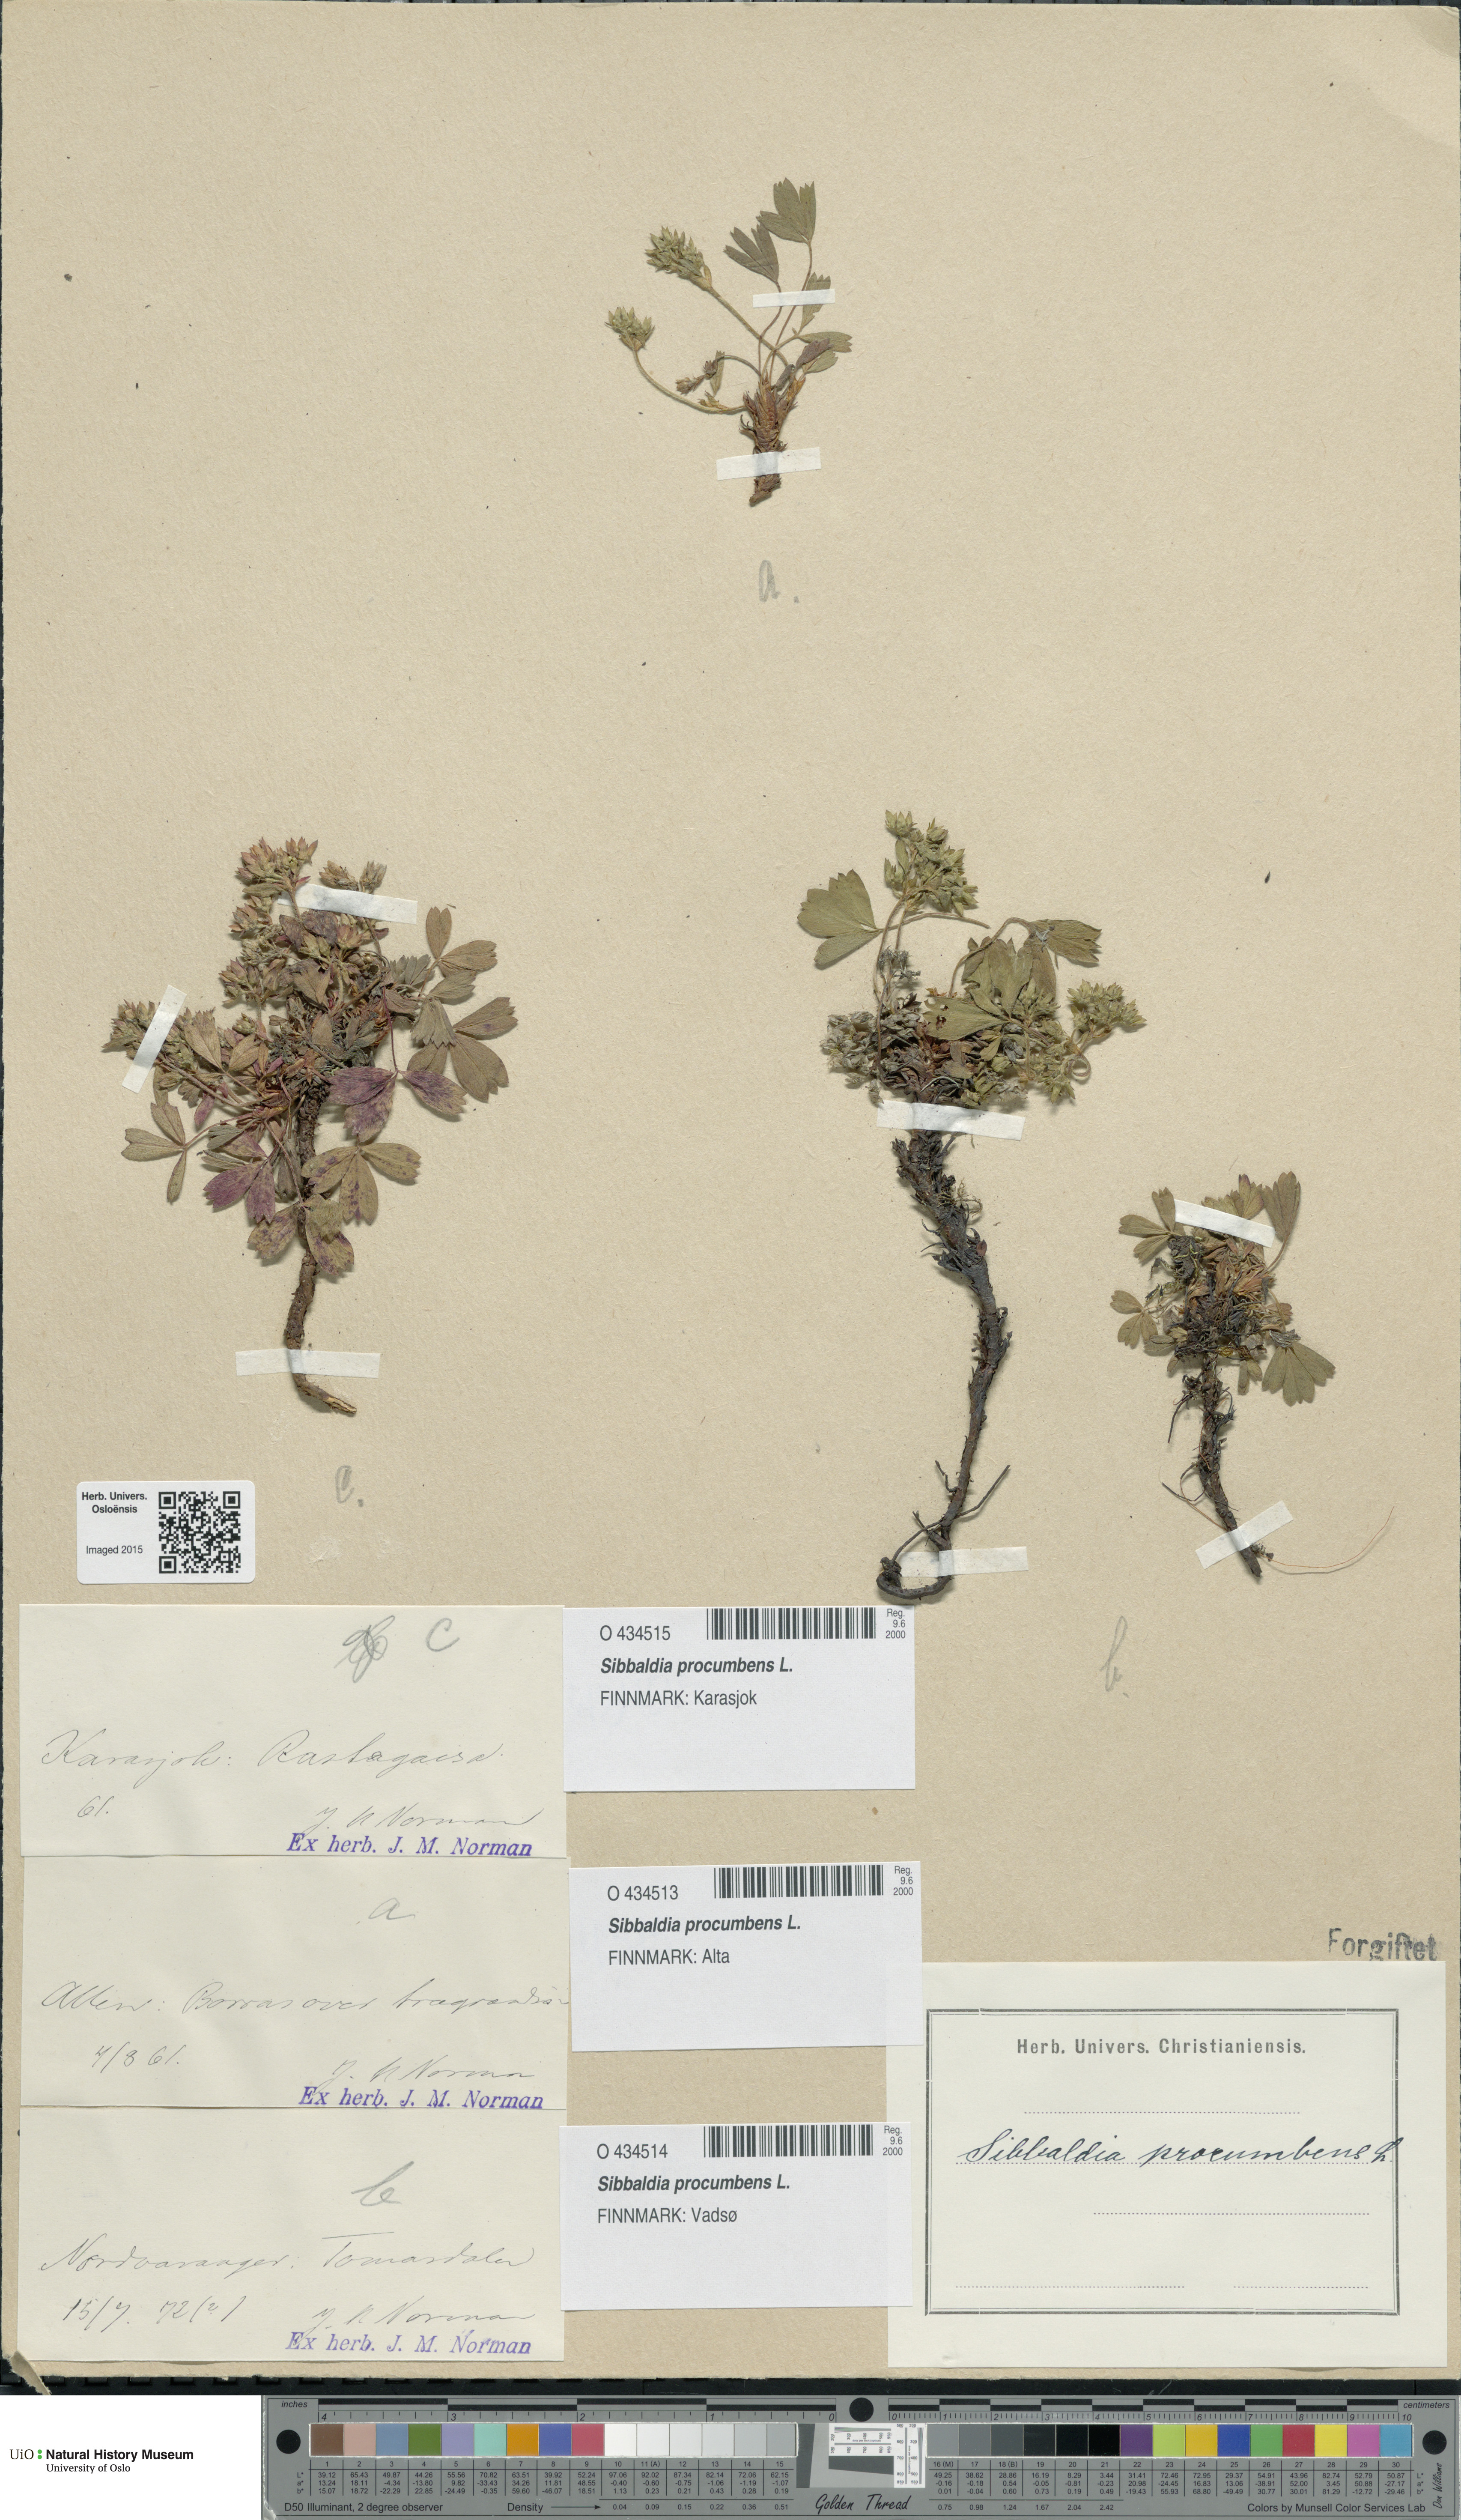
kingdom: Plantae
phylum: Tracheophyta
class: Magnoliopsida
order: Rosales
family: Rosaceae
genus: Sibbaldia
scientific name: Sibbaldia procumbens
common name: Creeping sibbaldia
